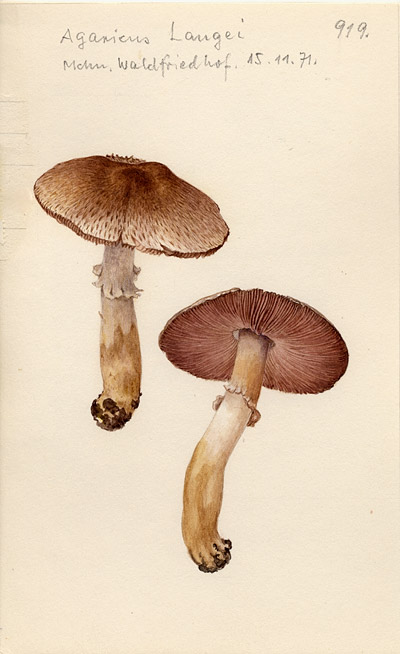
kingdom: Fungi
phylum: Basidiomycota
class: Agaricomycetes
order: Agaricales
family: Agaricaceae
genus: Agaricus
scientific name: Agaricus langei
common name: Scaly wood mushroom
